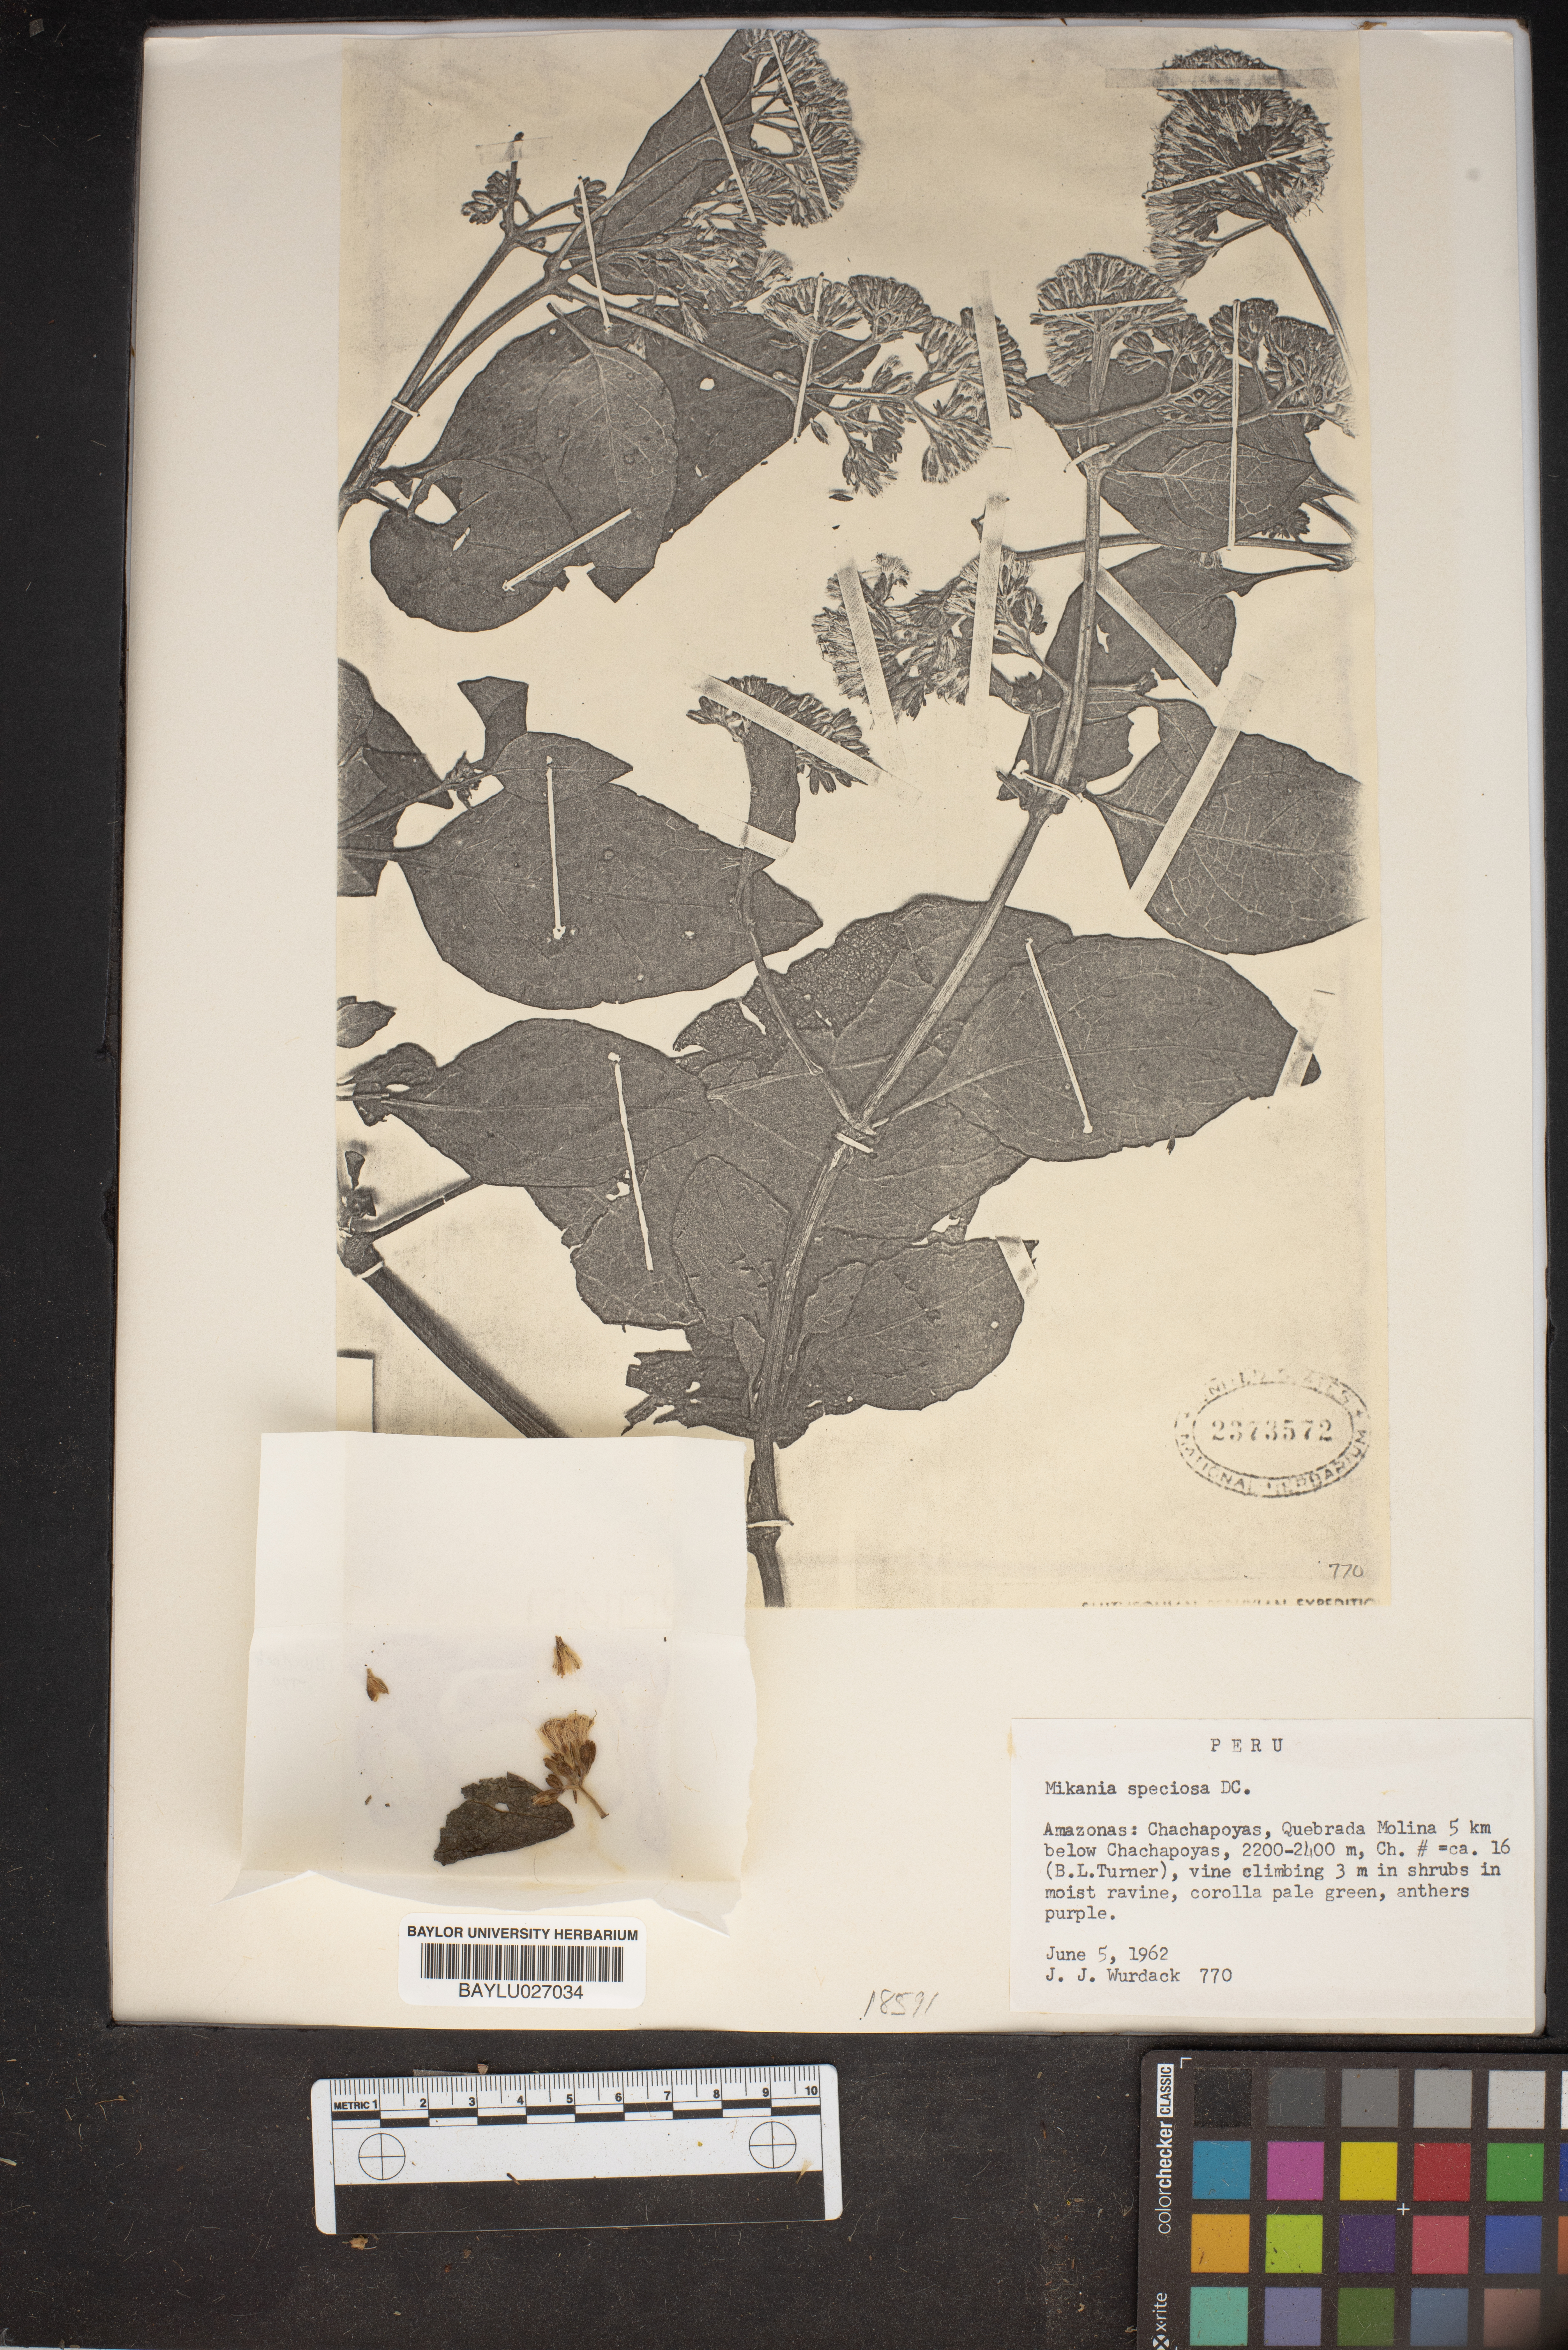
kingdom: Plantae
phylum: Tracheophyta
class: Magnoliopsida
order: Asterales
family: Asteraceae
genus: Mikania
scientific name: Mikania speciosa
